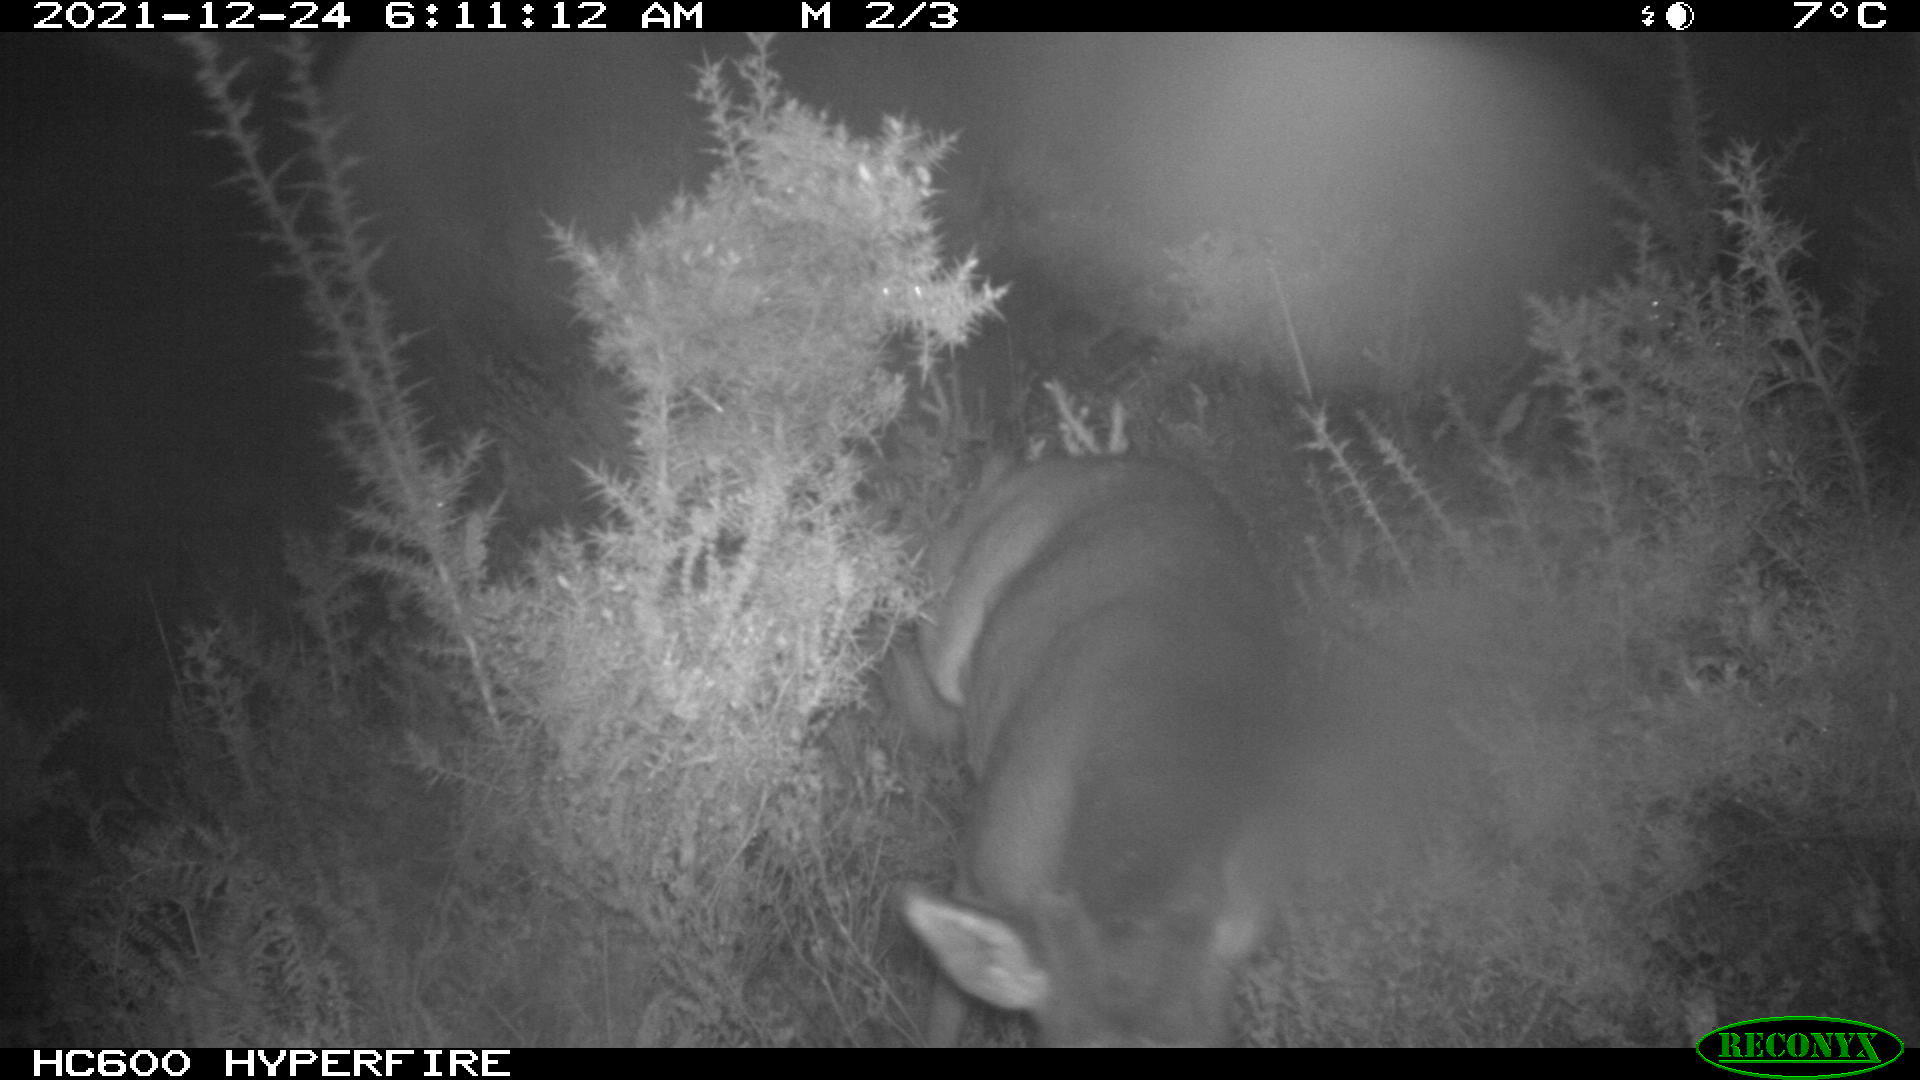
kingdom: Animalia
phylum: Chordata
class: Mammalia
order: Artiodactyla
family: Cervidae
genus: Capreolus
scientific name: Capreolus capreolus
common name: Western roe deer
